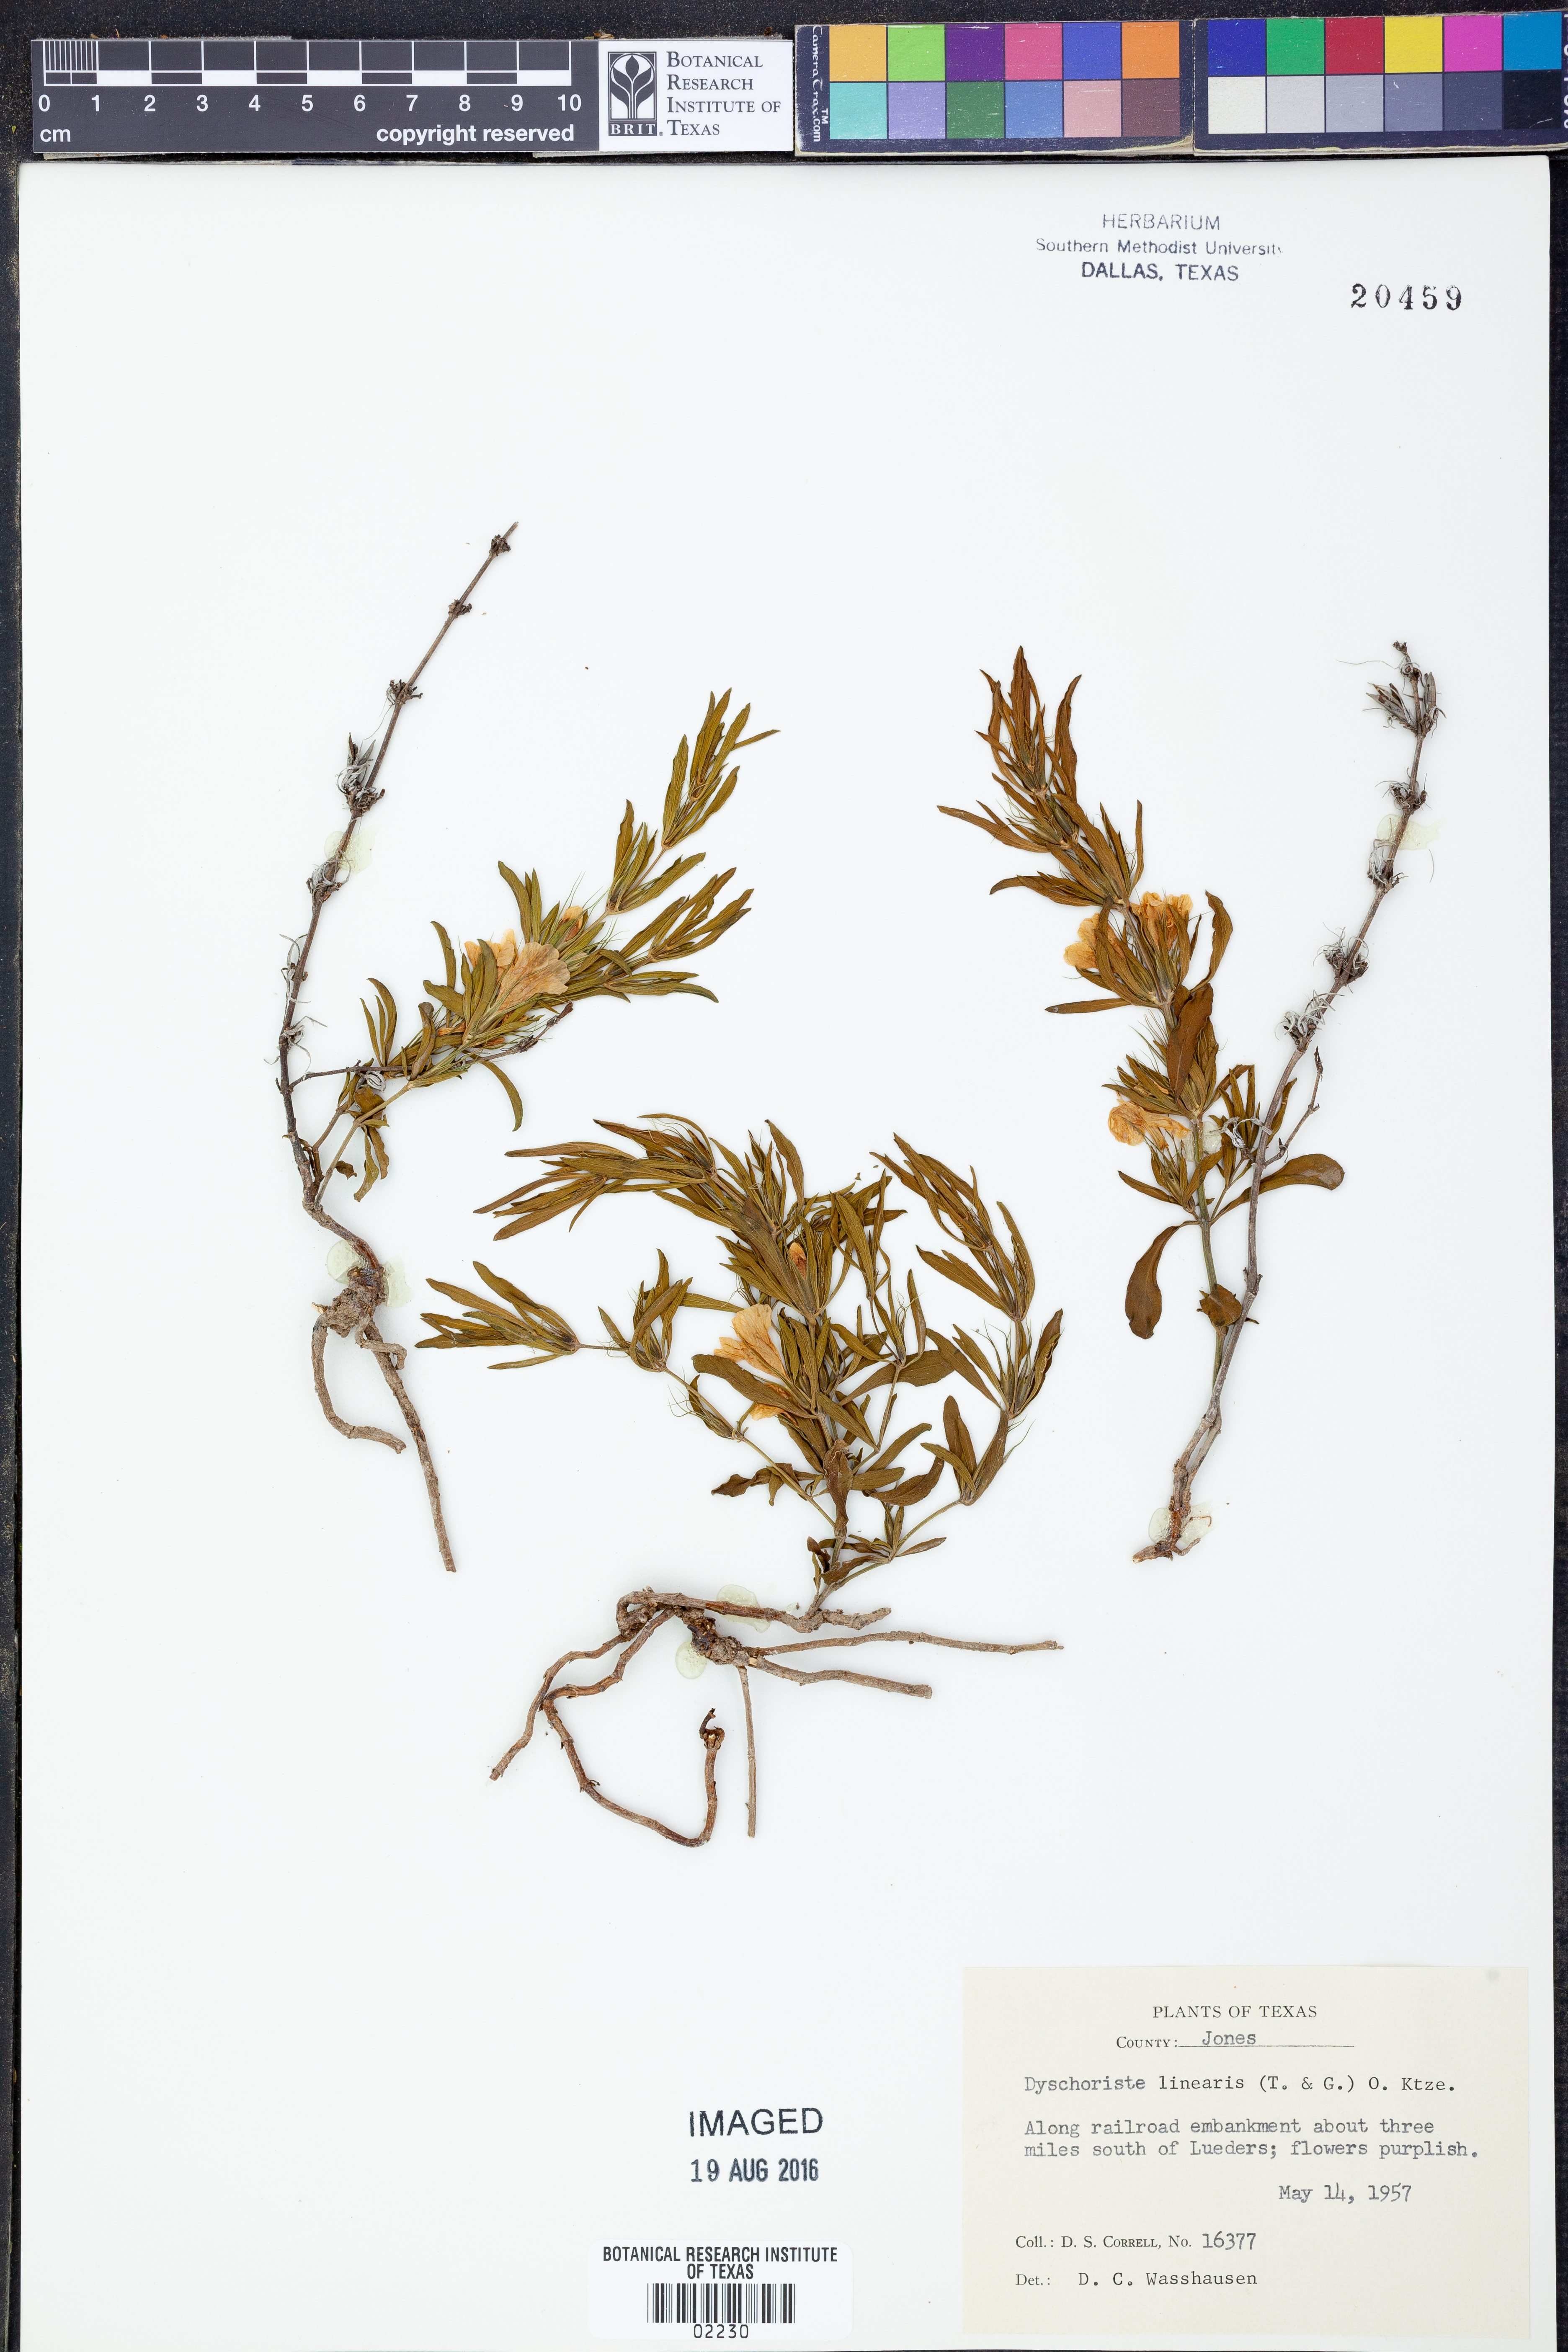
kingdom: Plantae
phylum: Tracheophyta
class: Magnoliopsida
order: Lamiales
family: Acanthaceae
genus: Dyschoriste
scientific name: Dyschoriste linearis
